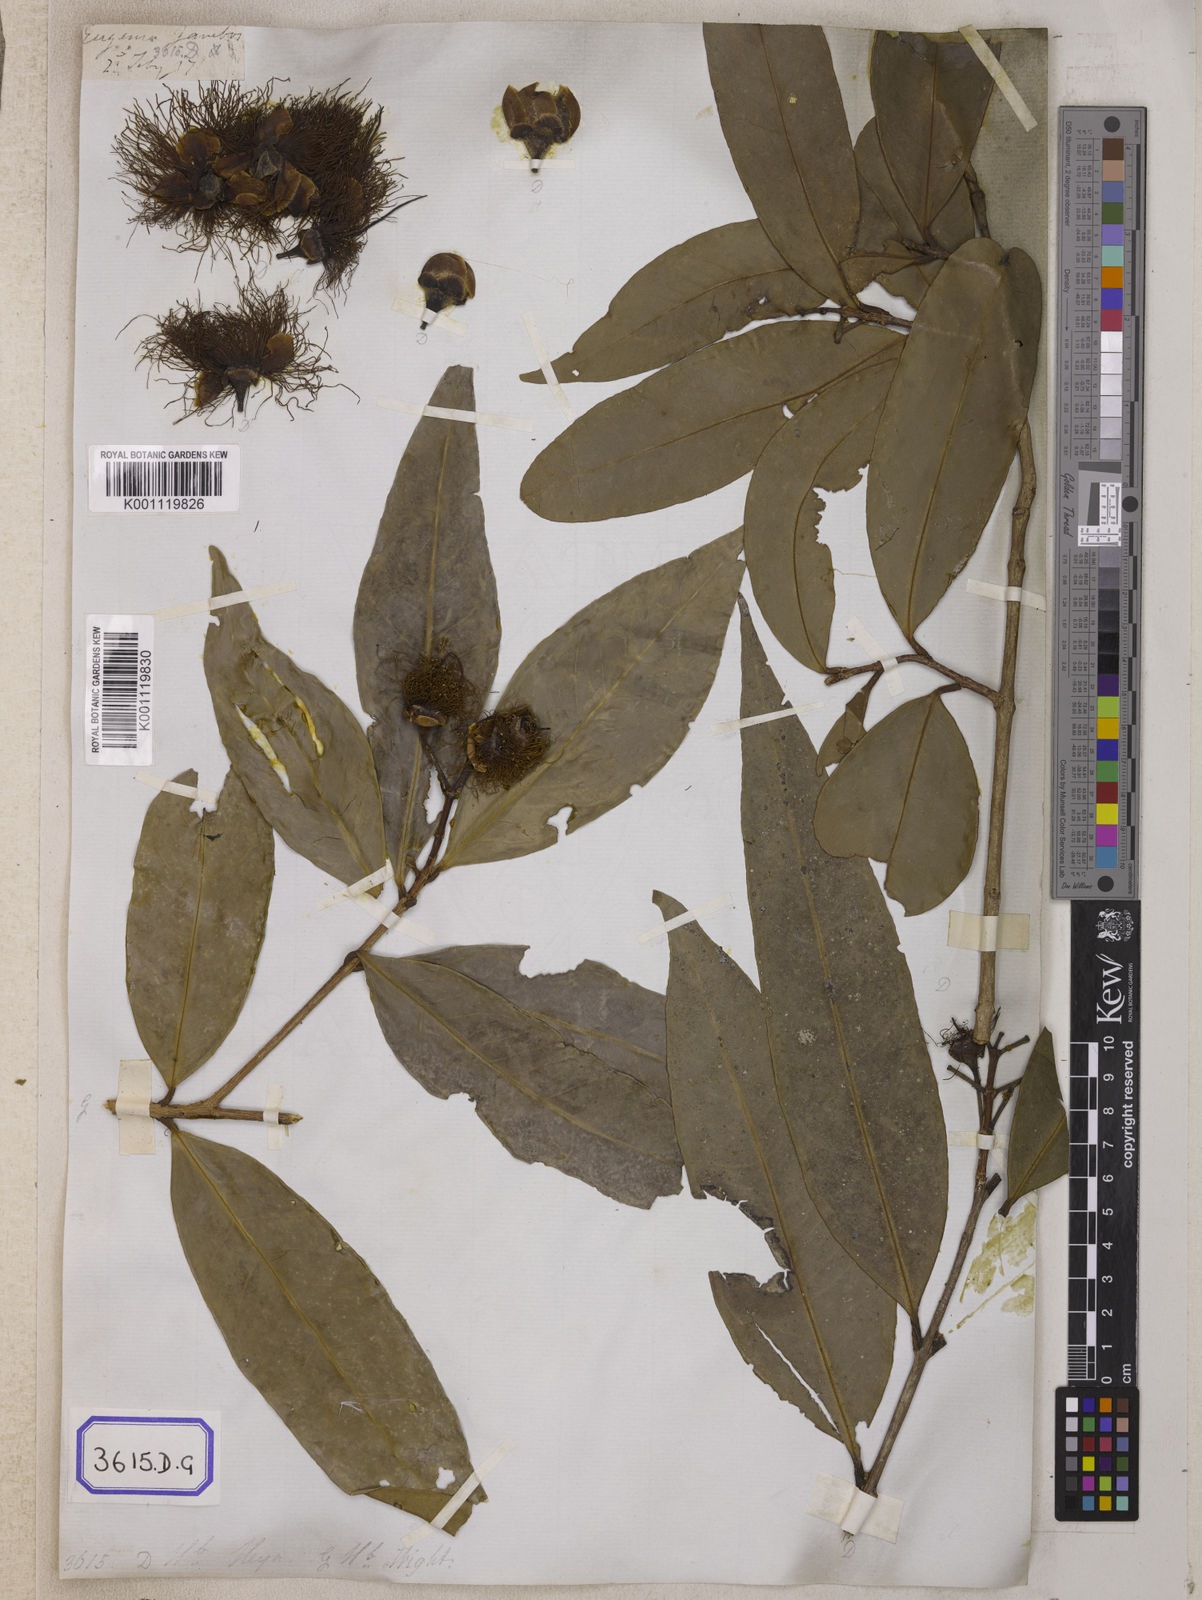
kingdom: Plantae
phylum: Tracheophyta
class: Magnoliopsida
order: Myrtales
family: Myrtaceae
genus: Syzygium
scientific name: Syzygium jambos
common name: Malabar plum
